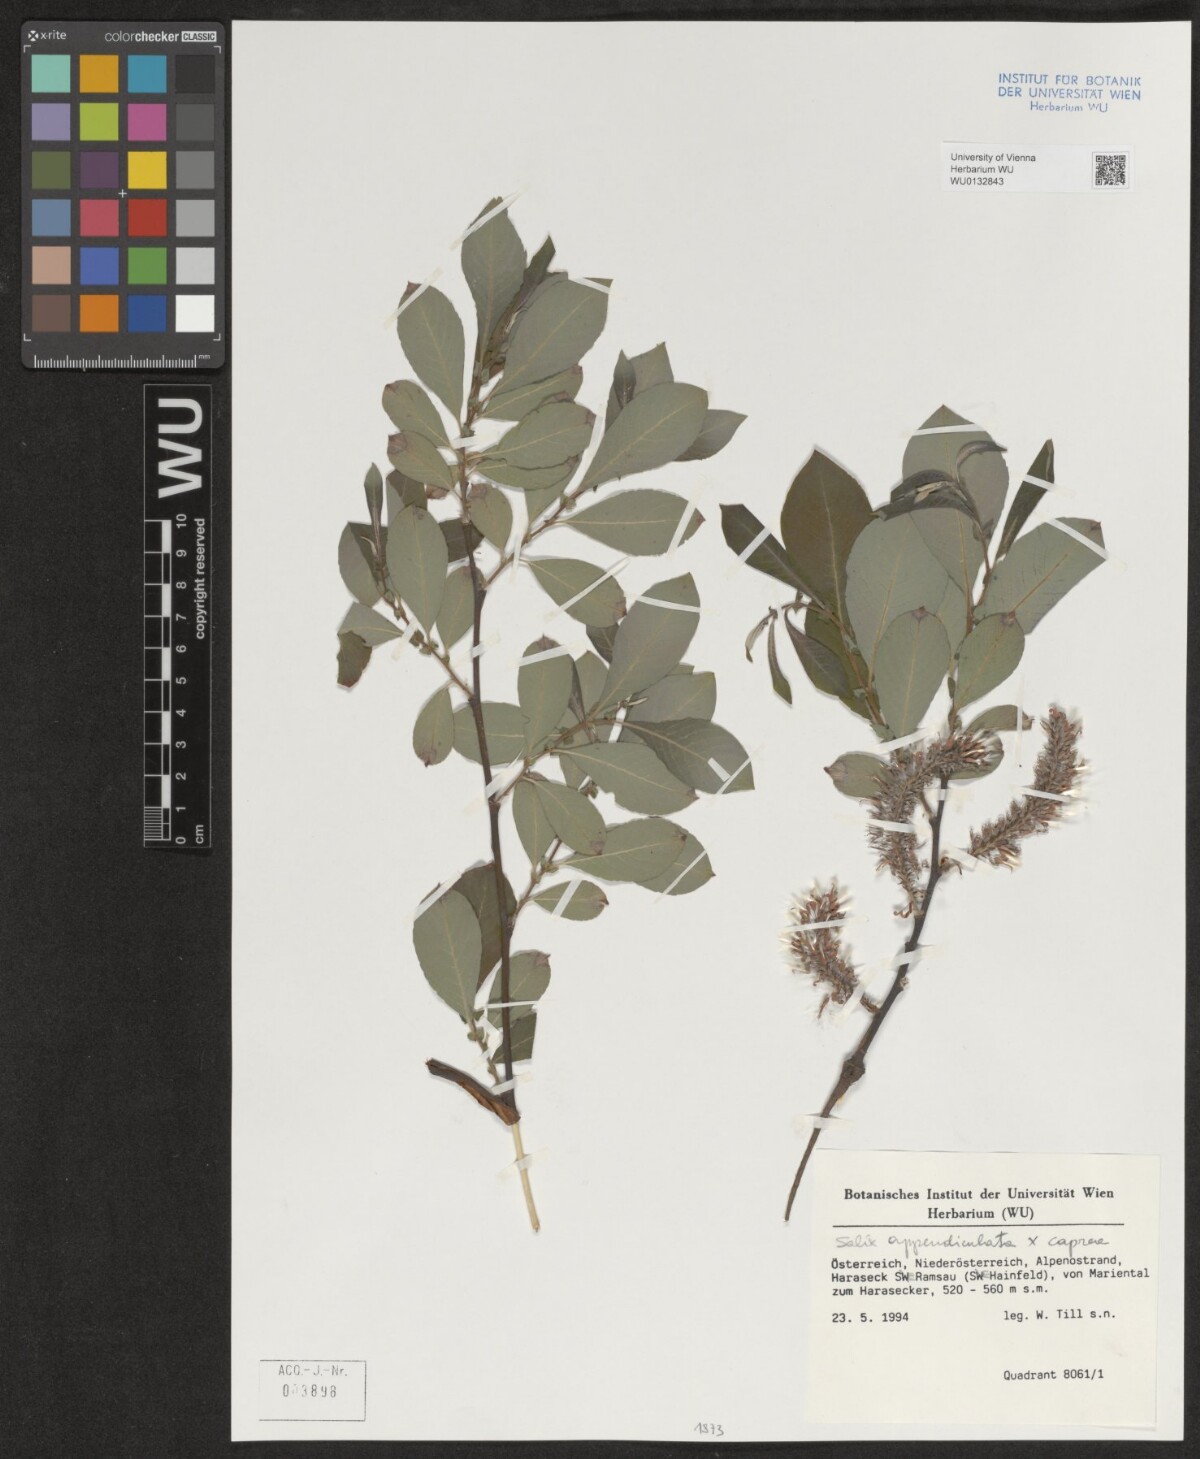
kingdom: Plantae
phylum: Tracheophyta
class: Magnoliopsida
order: Malpighiales
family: Salicaceae
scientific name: Salicaceae
